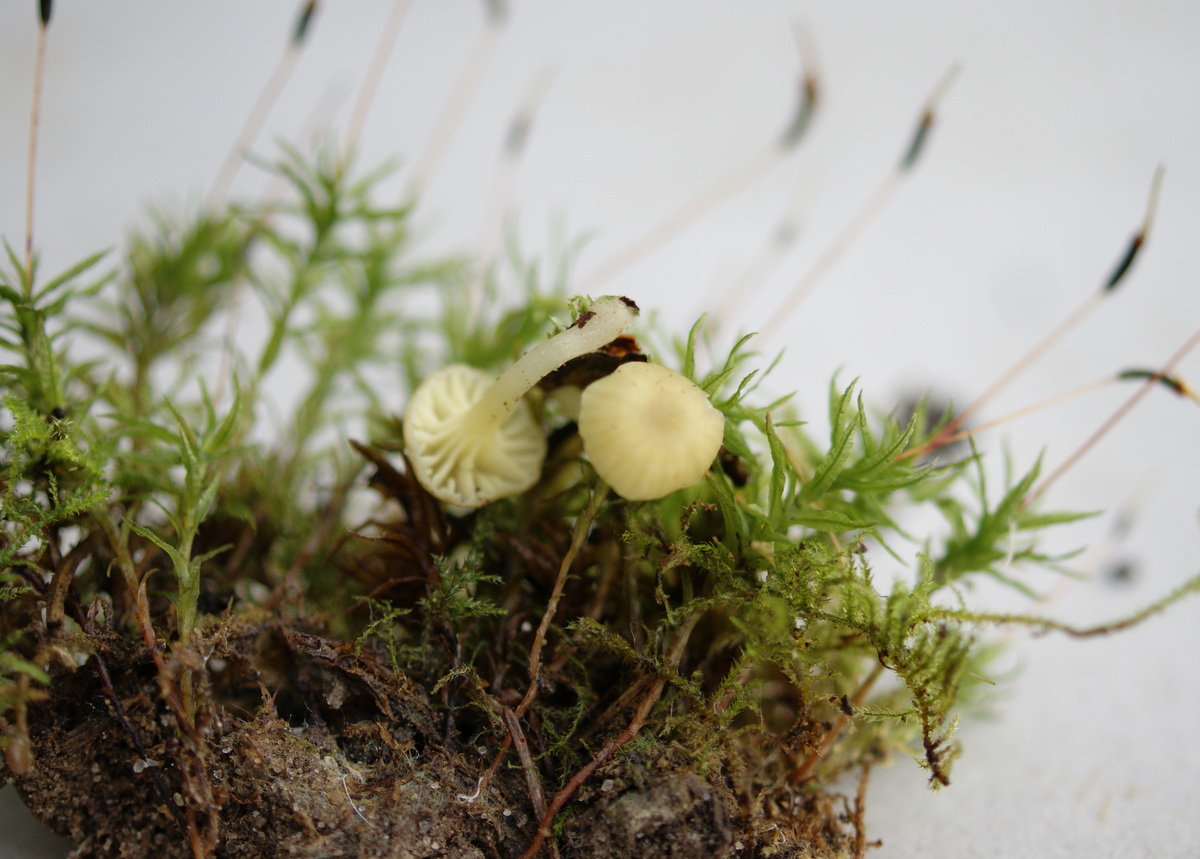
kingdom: Fungi
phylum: Basidiomycota
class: Agaricomycetes
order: Agaricales
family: Hygrophoraceae
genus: Chrysomphalina
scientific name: Chrysomphalina grossula
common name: stød-gyldenblad
